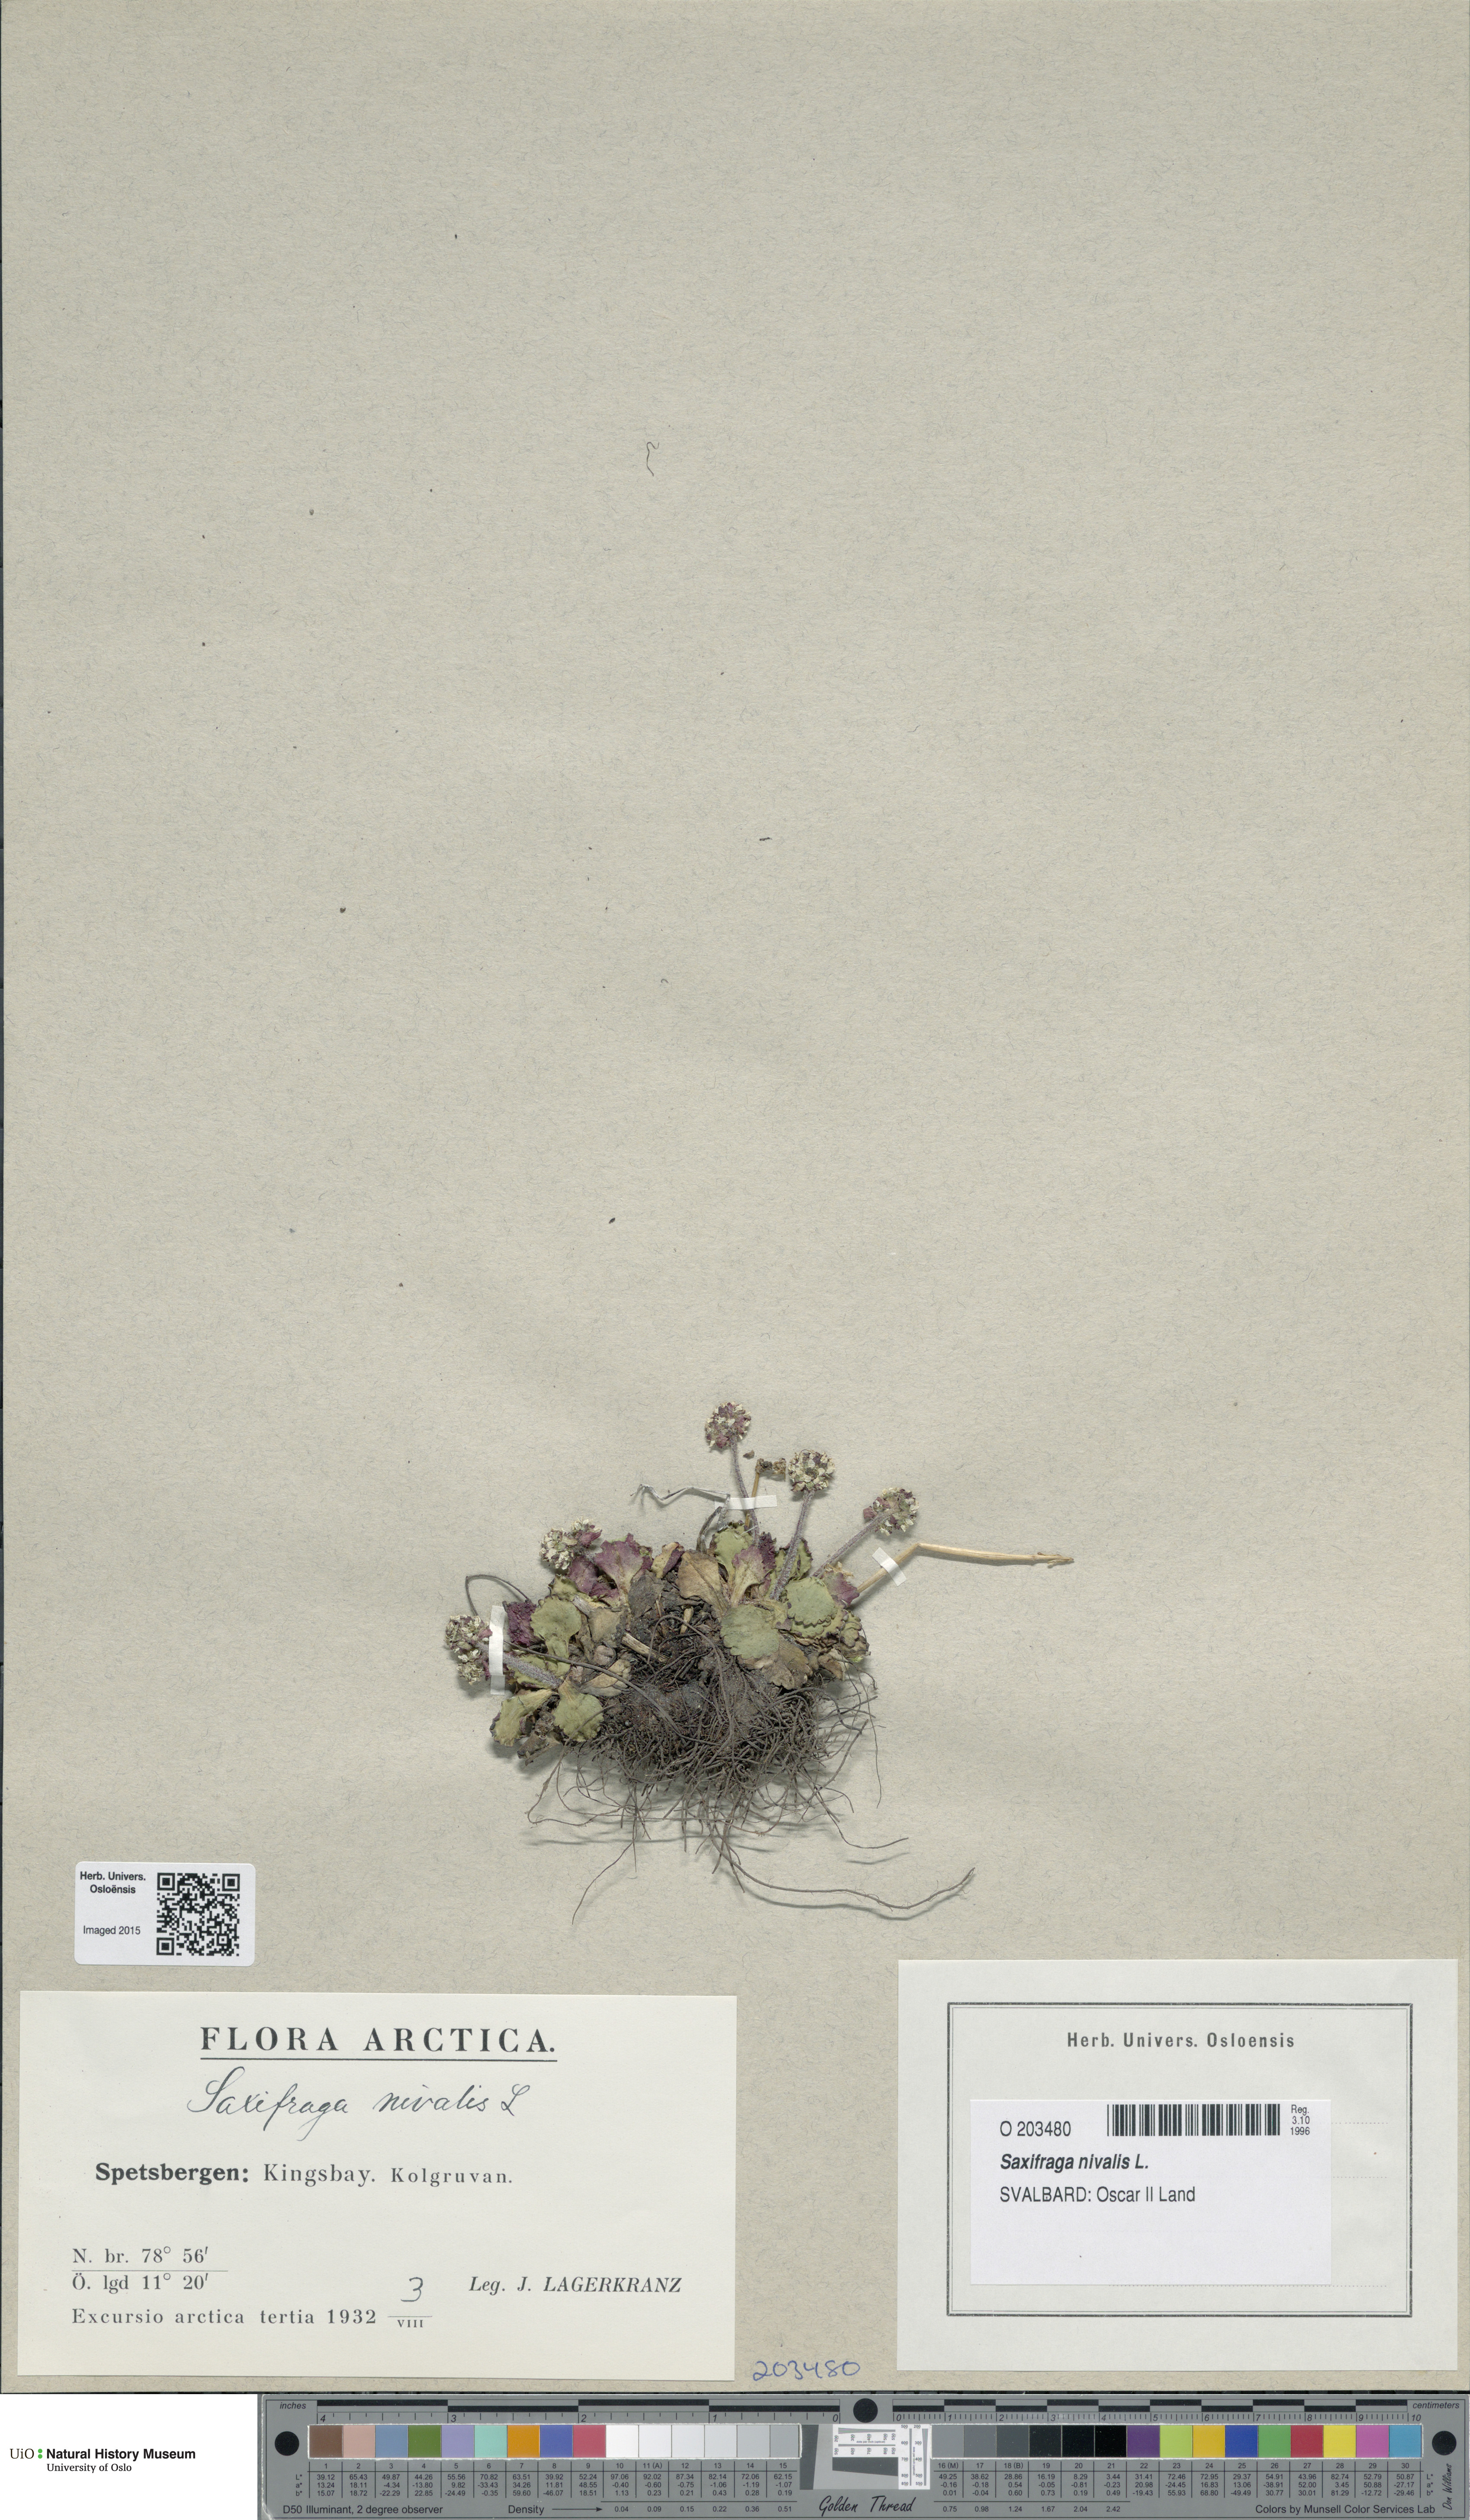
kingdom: Plantae
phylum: Tracheophyta
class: Magnoliopsida
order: Saxifragales
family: Saxifragaceae
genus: Micranthes
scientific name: Micranthes nivalis
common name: Alpine saxifrage
